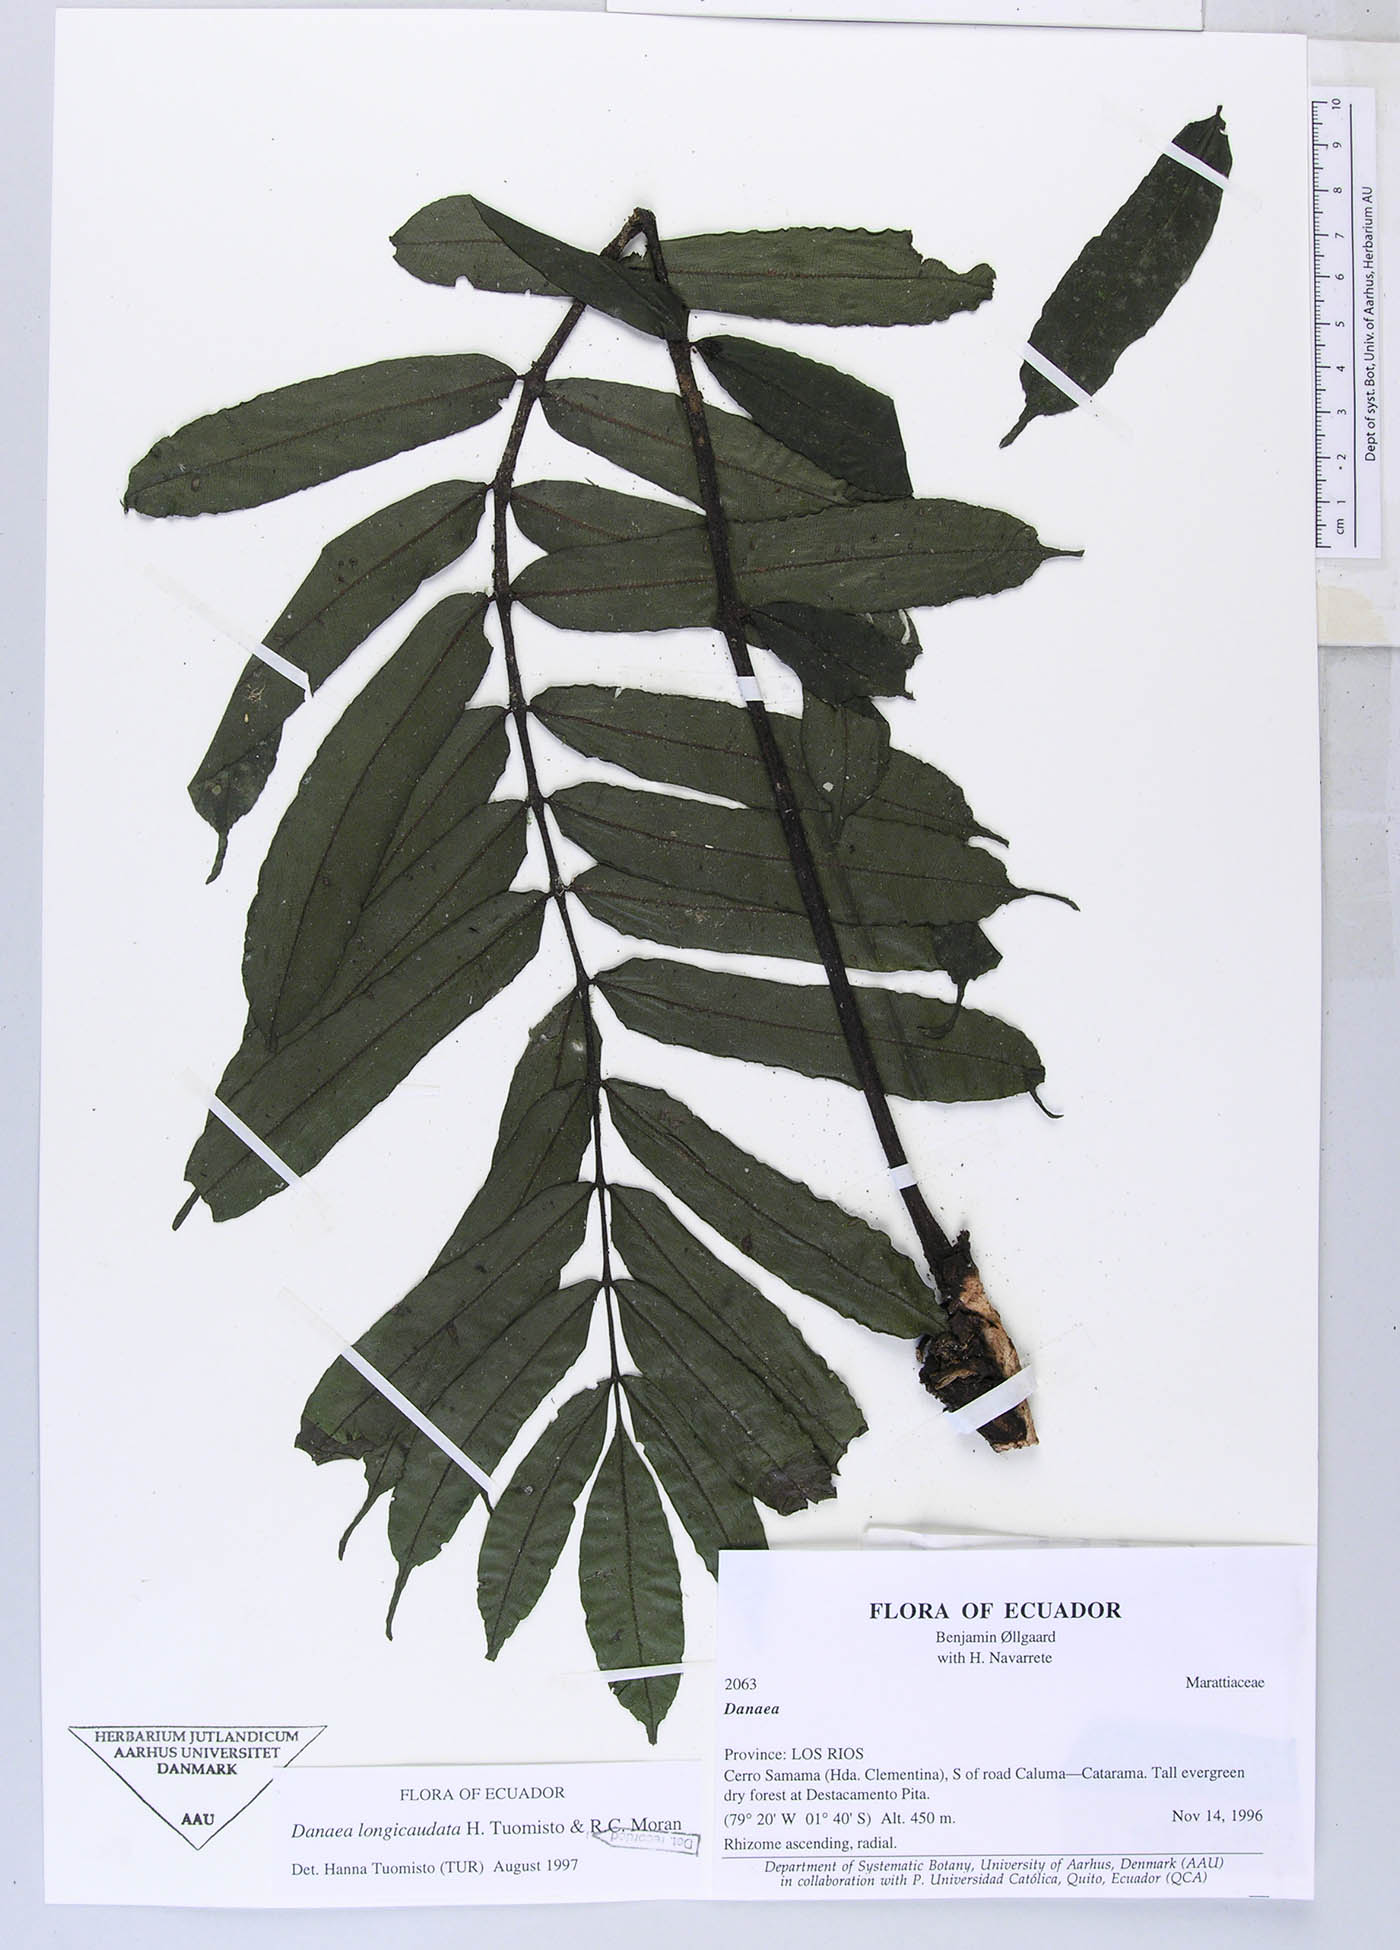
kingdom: Plantae
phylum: Tracheophyta
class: Polypodiopsida
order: Marattiales
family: Marattiaceae
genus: Danaea
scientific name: Danaea
